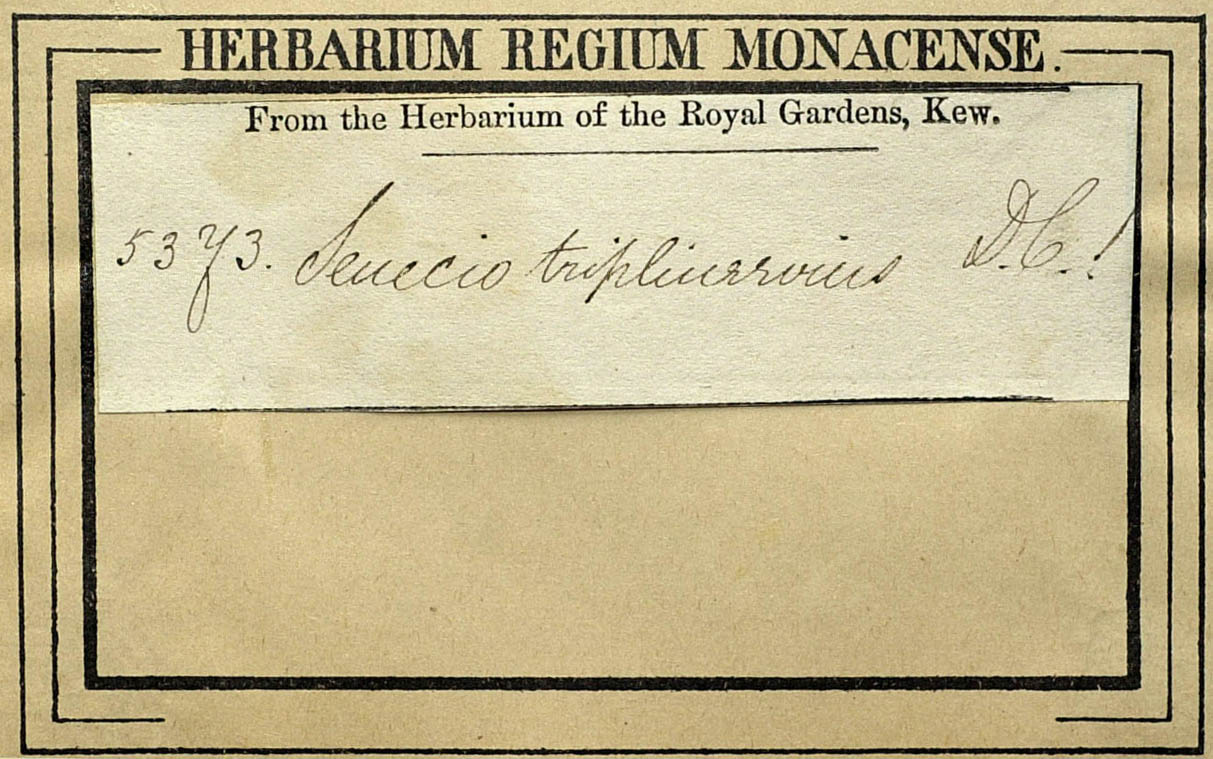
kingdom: Plantae
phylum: Tracheophyta
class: Magnoliopsida
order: Asterales
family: Asteraceae
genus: Senecio
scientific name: Senecio triplinervius
